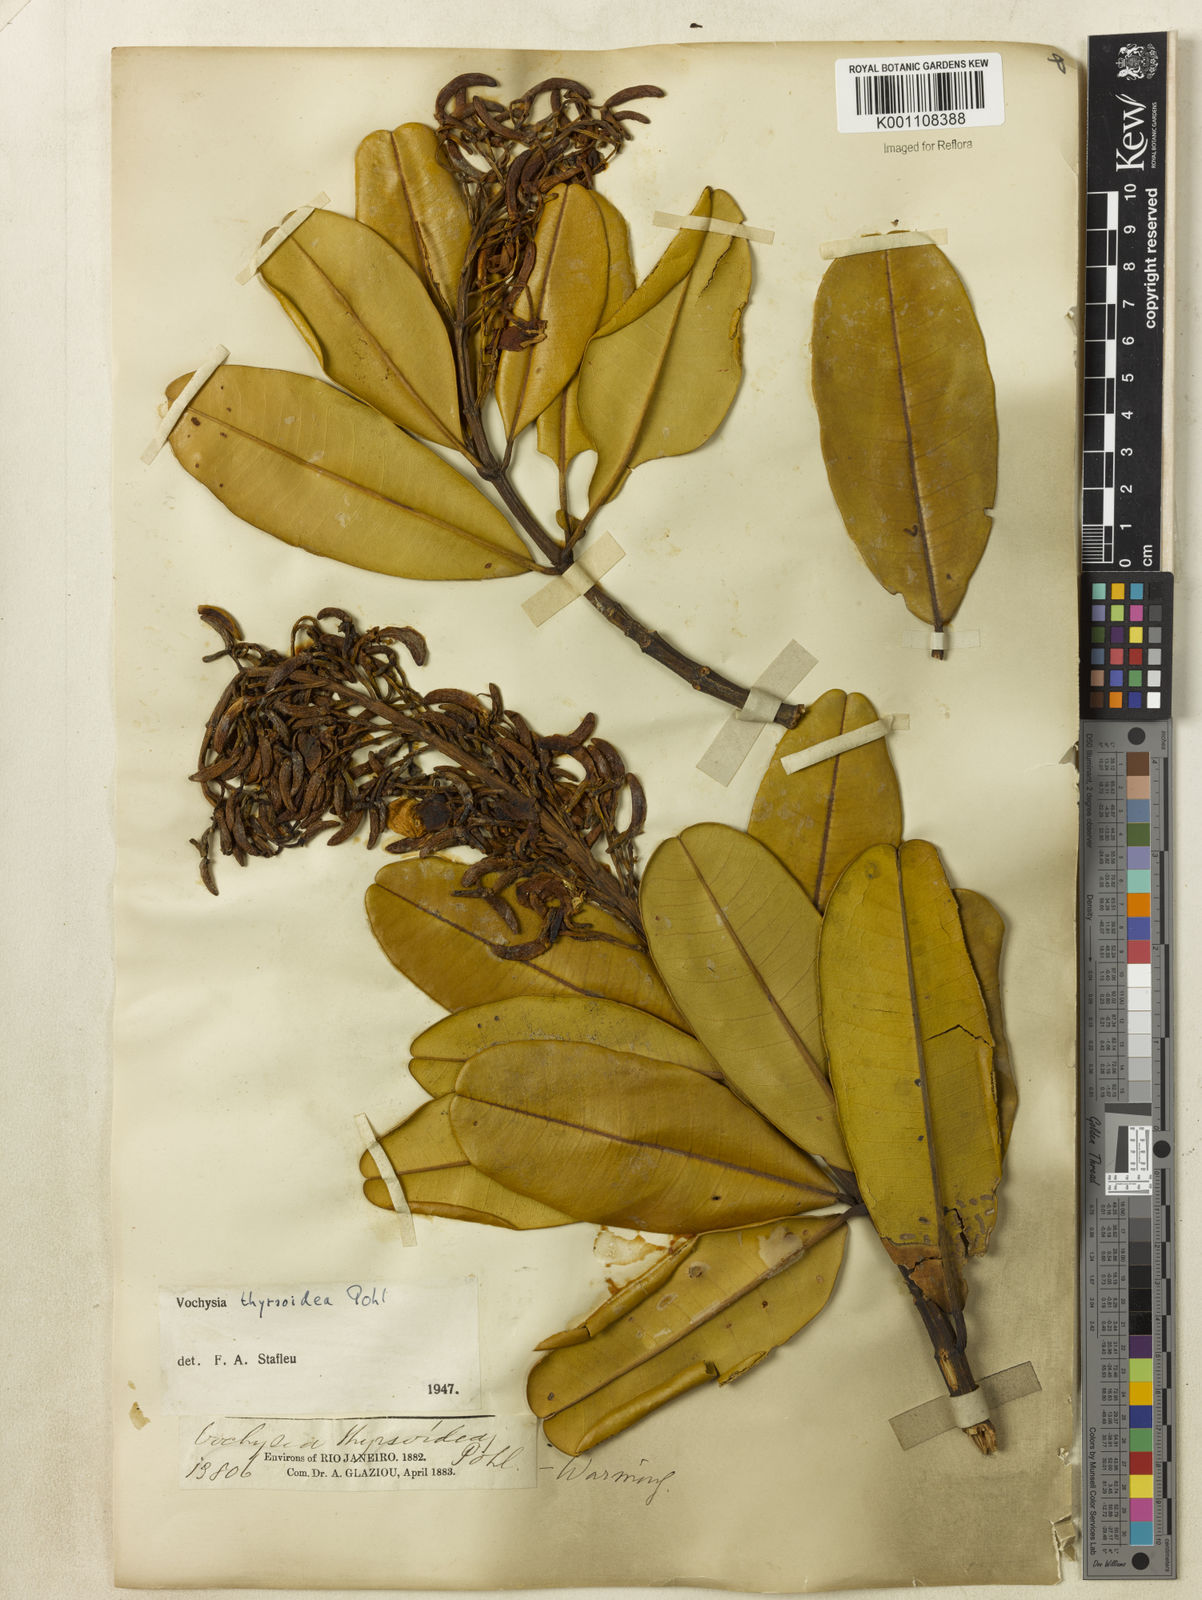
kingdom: Plantae
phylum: Tracheophyta
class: Magnoliopsida
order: Myrtales
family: Vochysiaceae
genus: Vochysia
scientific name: Vochysia thyrsoidea
